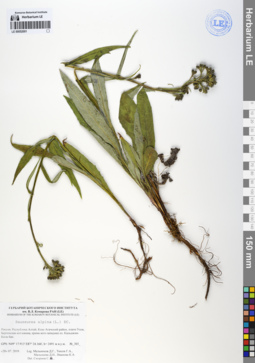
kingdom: Plantae
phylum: Tracheophyta
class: Magnoliopsida
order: Asterales
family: Asteraceae
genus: Saussurea
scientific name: Saussurea alpina
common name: Alpine saw-wort
